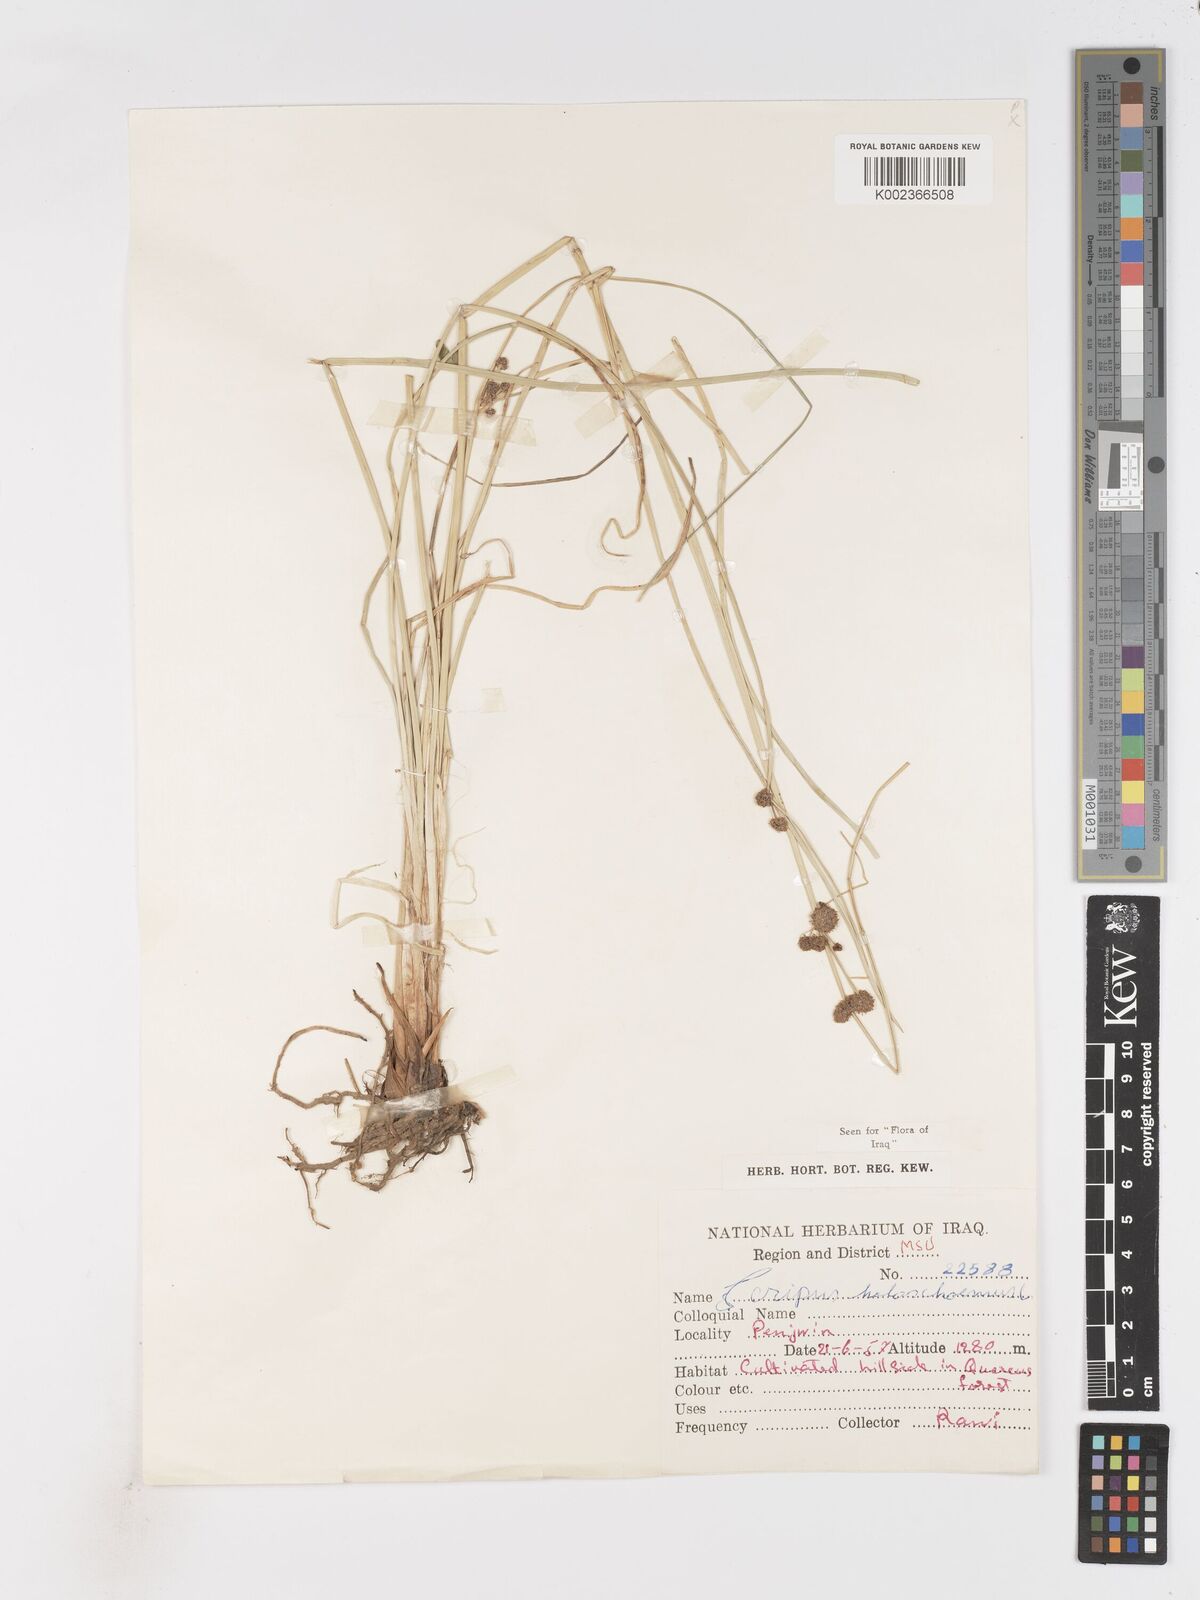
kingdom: Plantae
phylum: Tracheophyta
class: Liliopsida
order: Poales
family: Cyperaceae
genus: Scirpoides
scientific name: Scirpoides holoschoenus
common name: Round-headed club-rush
